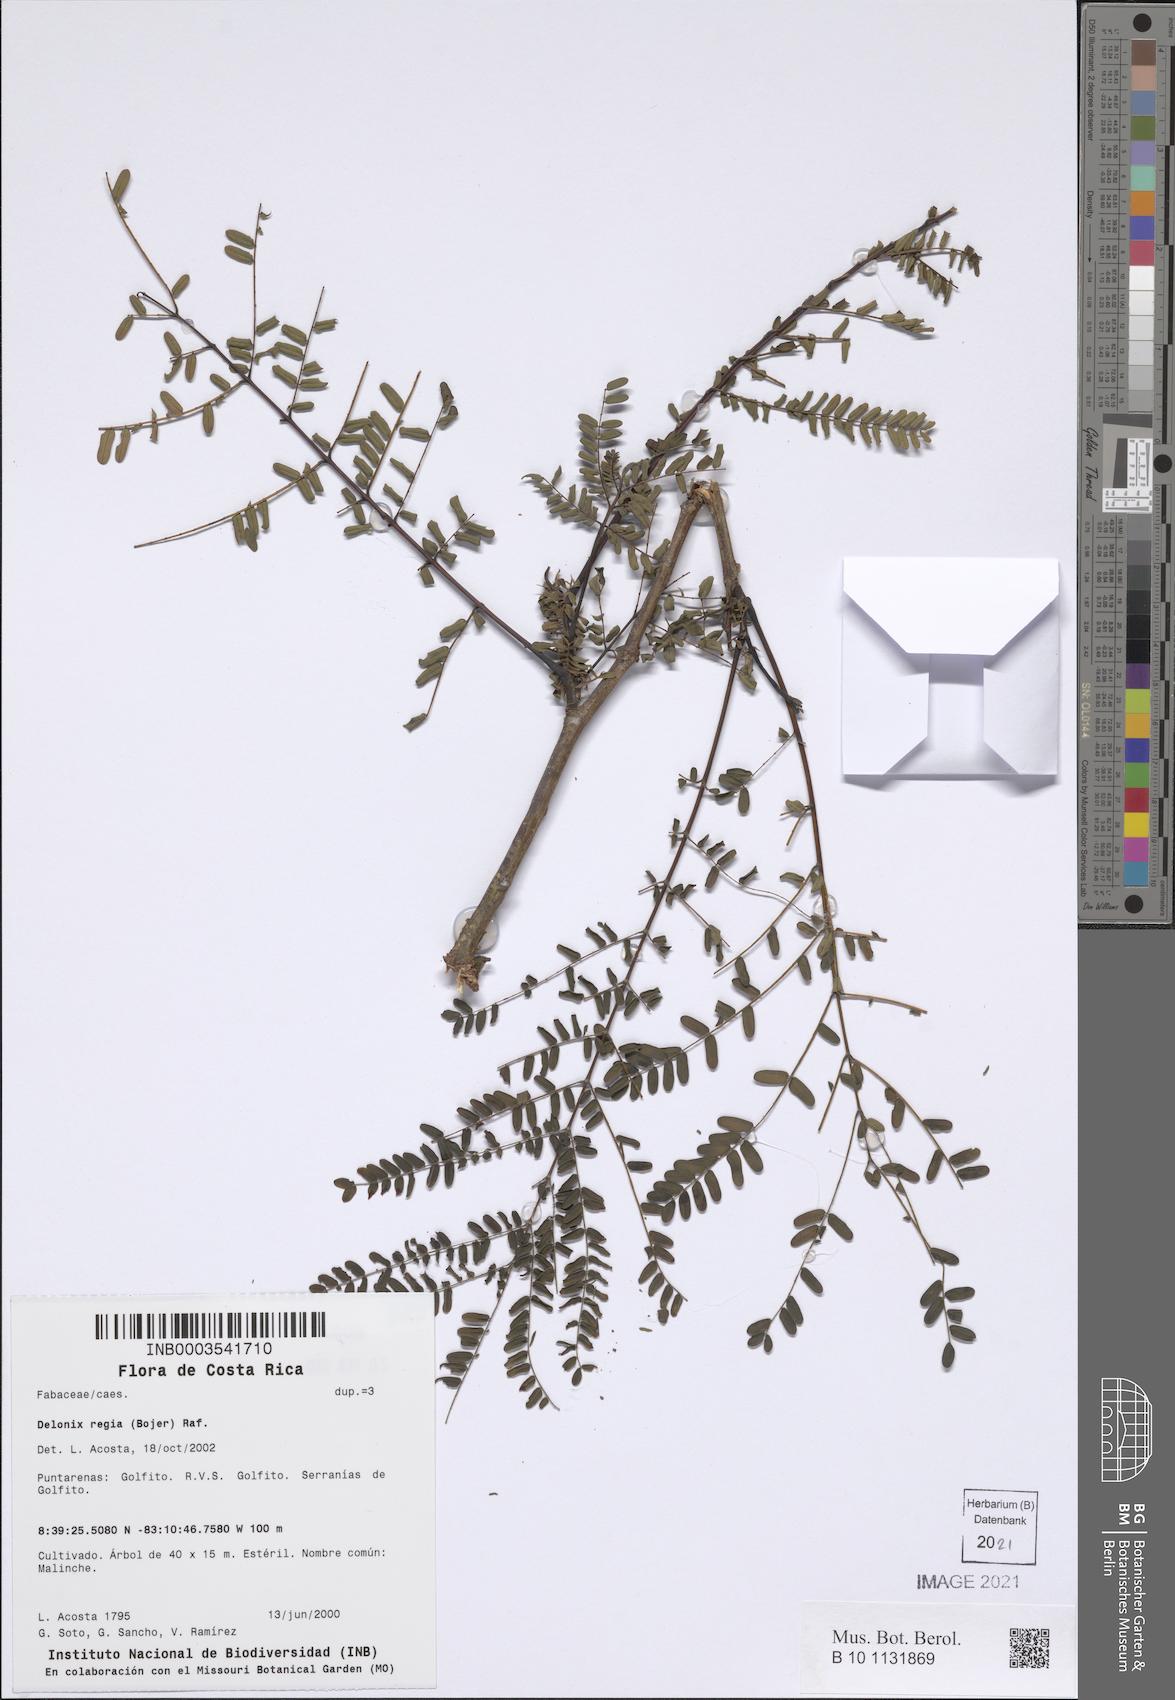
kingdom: Plantae
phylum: Tracheophyta
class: Magnoliopsida
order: Fabales
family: Fabaceae
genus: Delonix
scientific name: Delonix regia
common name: Royal poinciana
